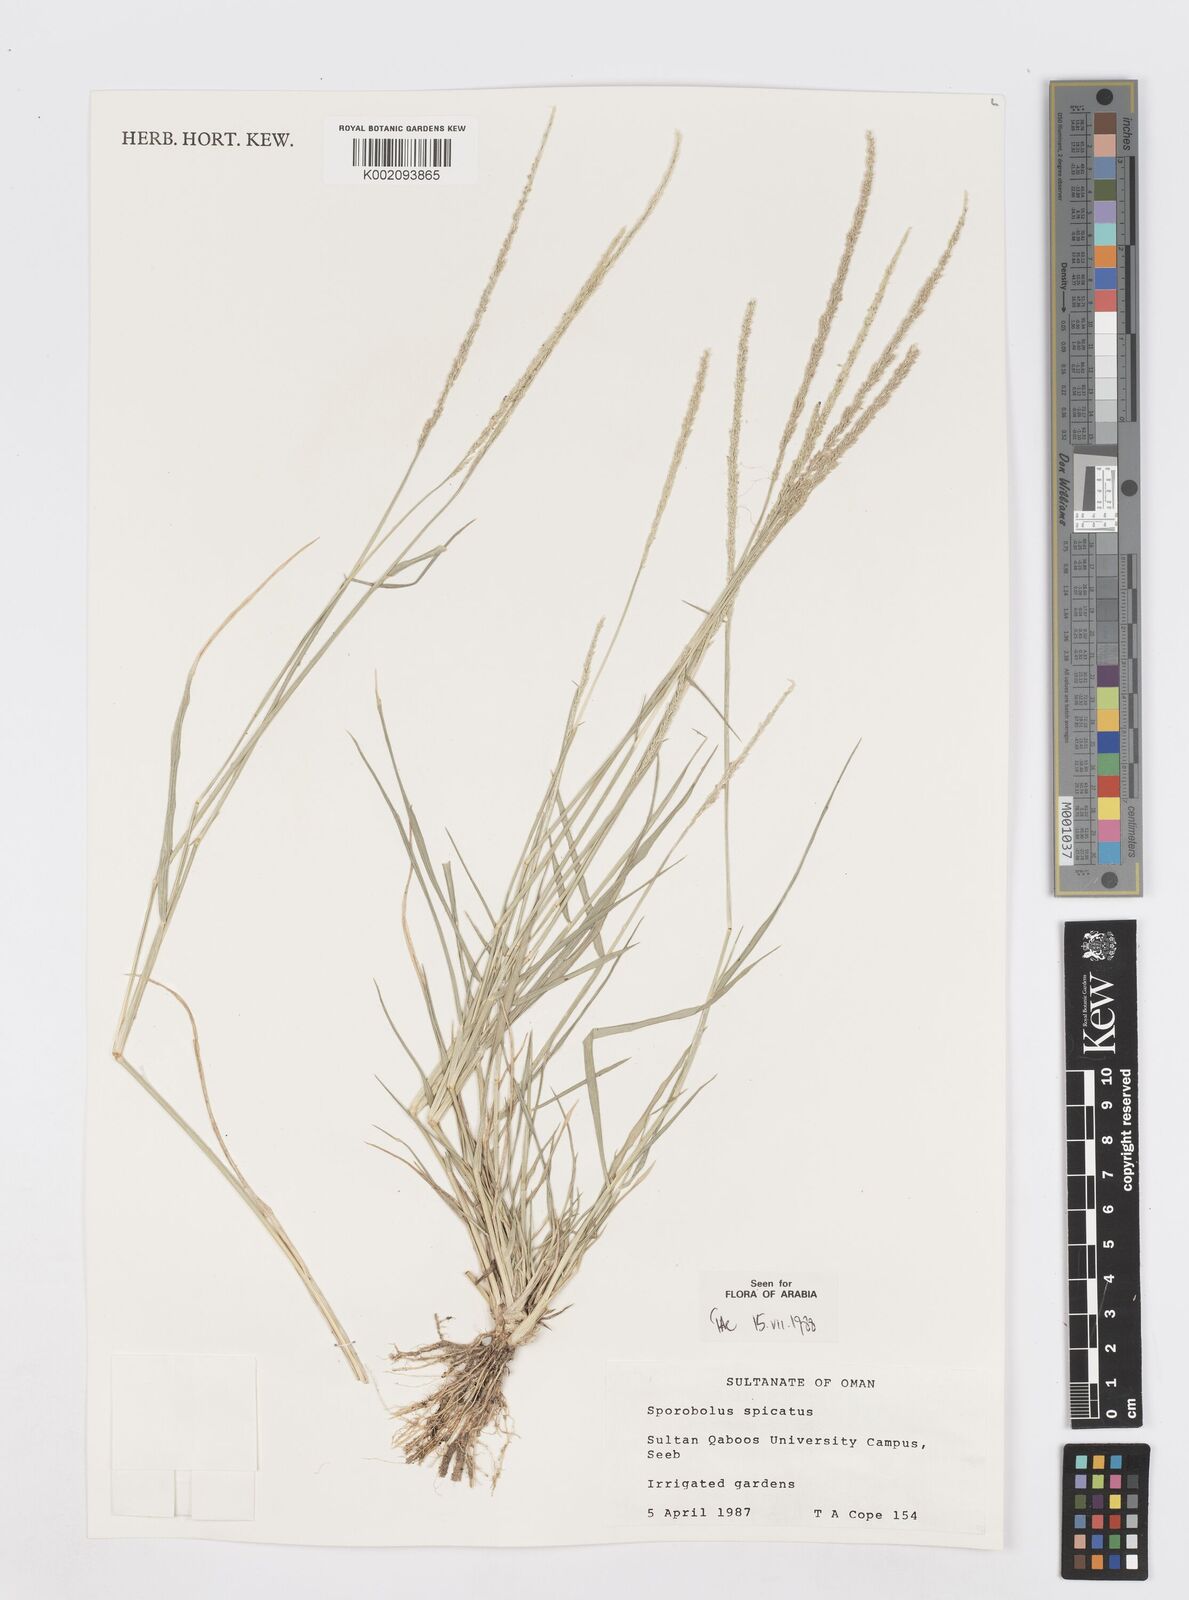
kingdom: Plantae
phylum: Tracheophyta
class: Liliopsida
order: Poales
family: Poaceae
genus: Sporobolus
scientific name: Sporobolus spicatus
